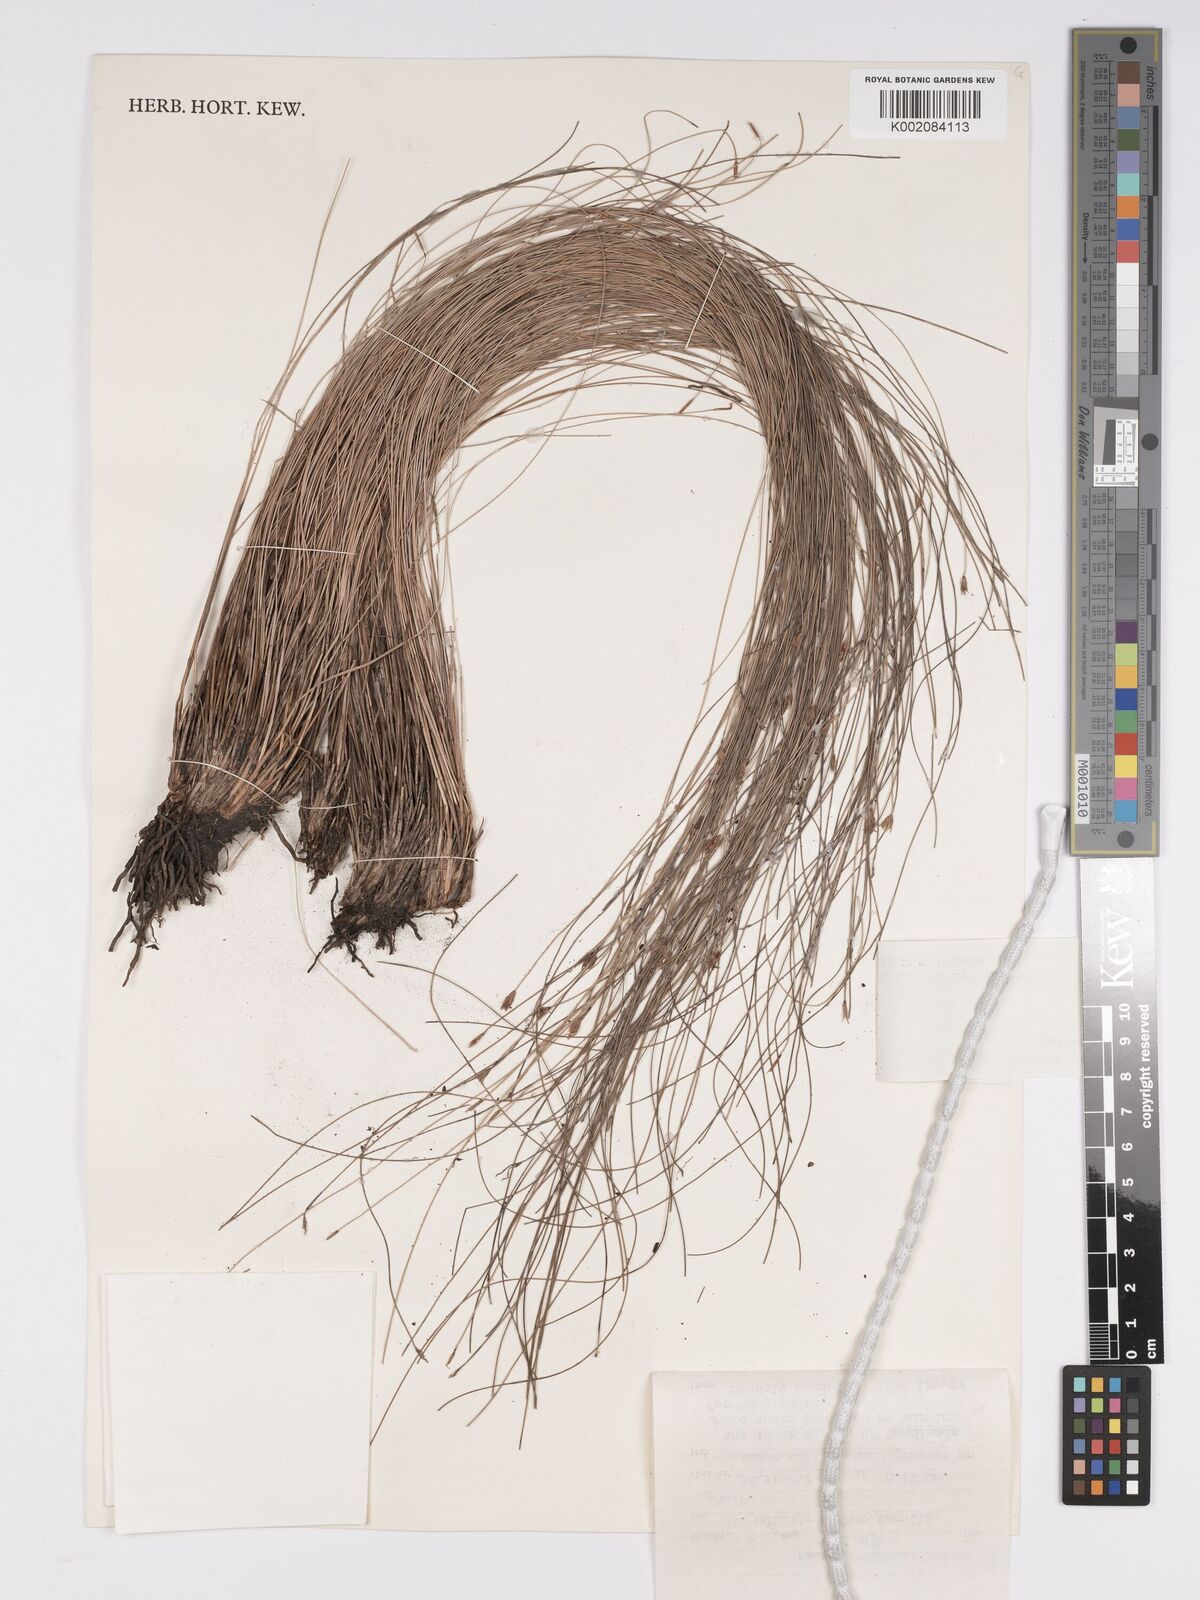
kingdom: Plantae
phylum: Tracheophyta
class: Liliopsida
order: Poales
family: Cyperaceae
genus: Bulbostylis
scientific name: Bulbostylis
